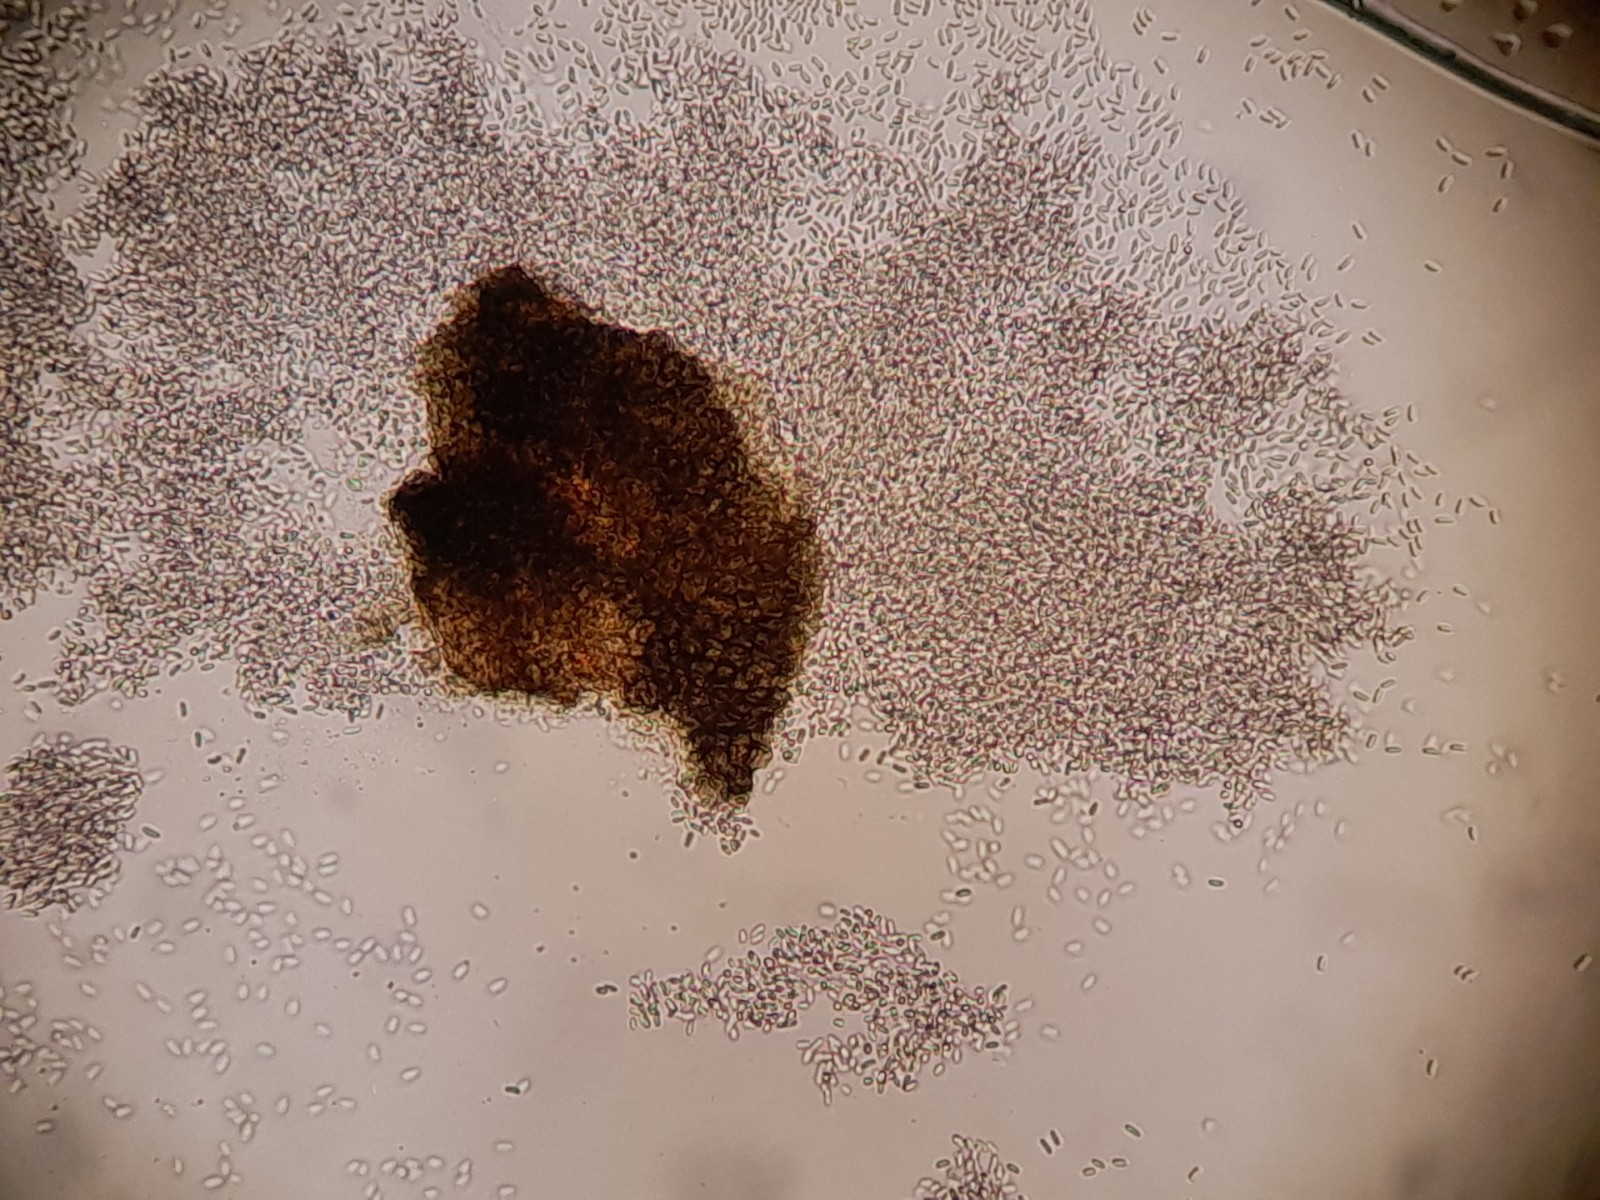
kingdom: Fungi
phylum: Ascomycota
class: Dothideomycetes
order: Pleosporales
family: Diademaceae
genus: Comoclathris
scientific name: Comoclathris typhicola
